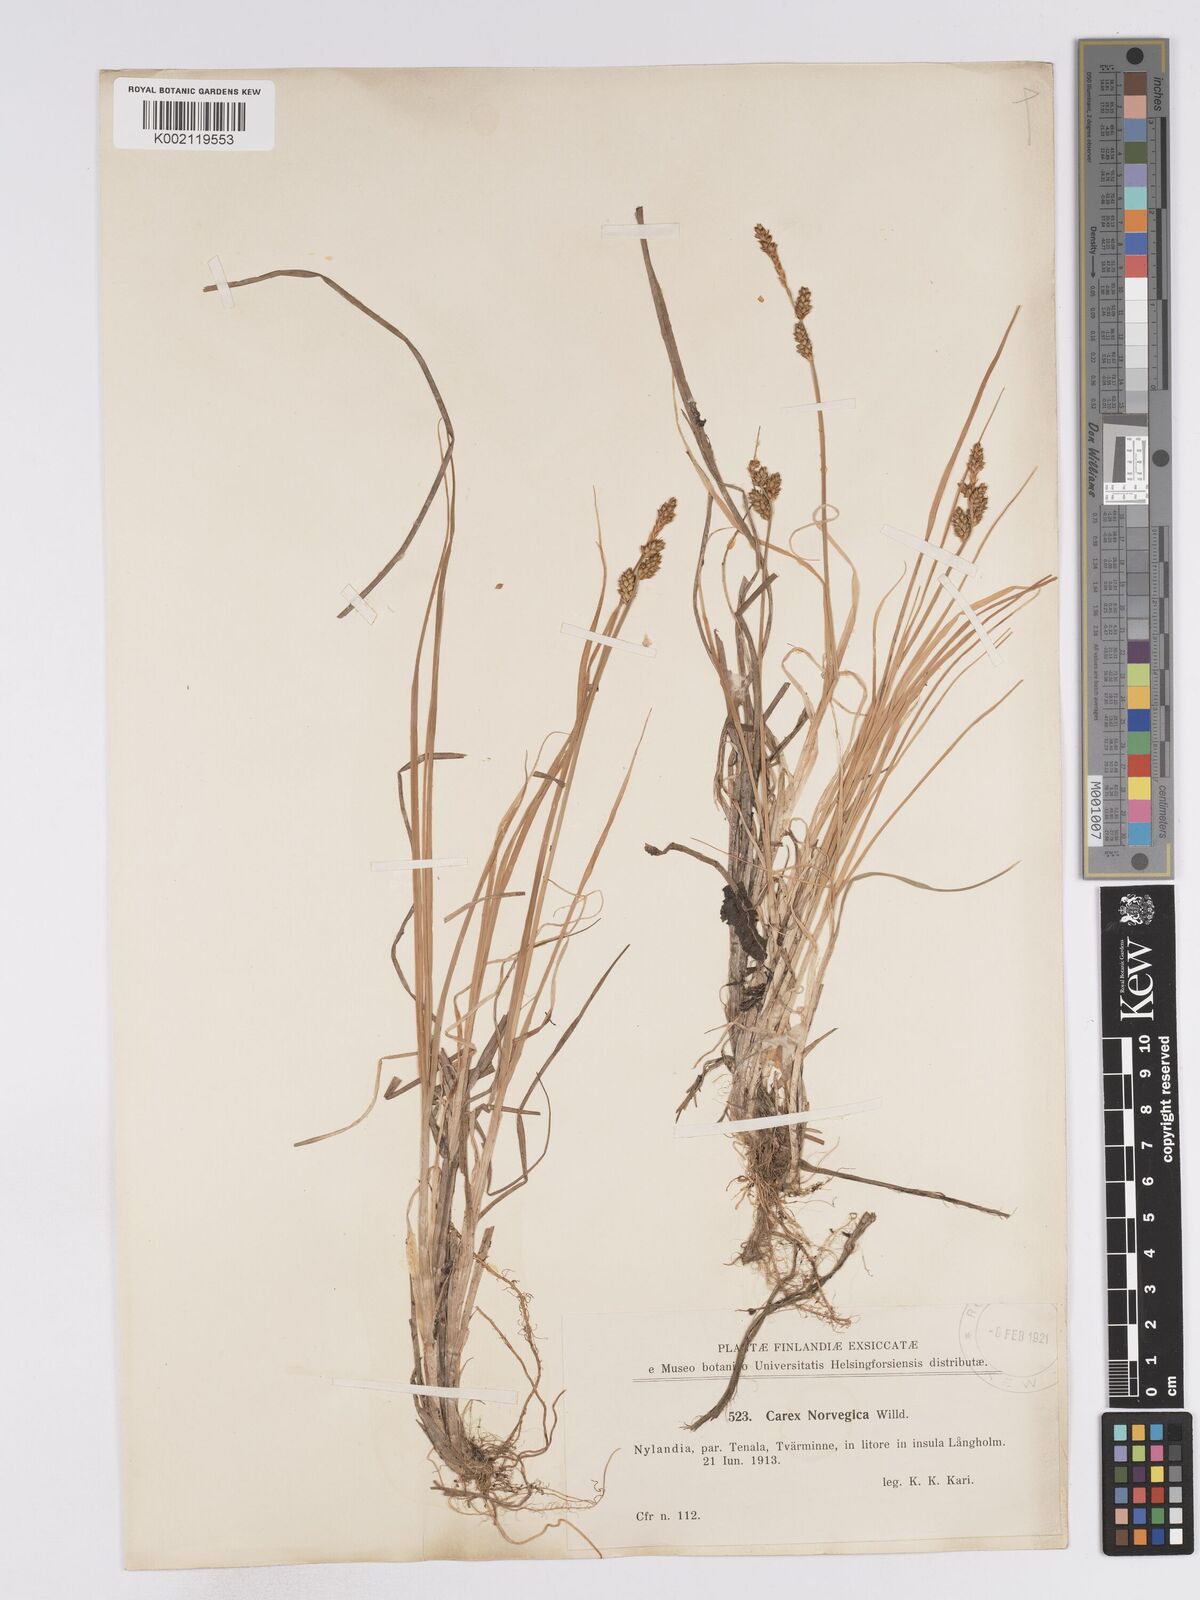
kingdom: Plantae
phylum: Tracheophyta
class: Liliopsida
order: Poales
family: Cyperaceae
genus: Carex
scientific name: Carex mackenziei
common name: Mackenzie's sedge
